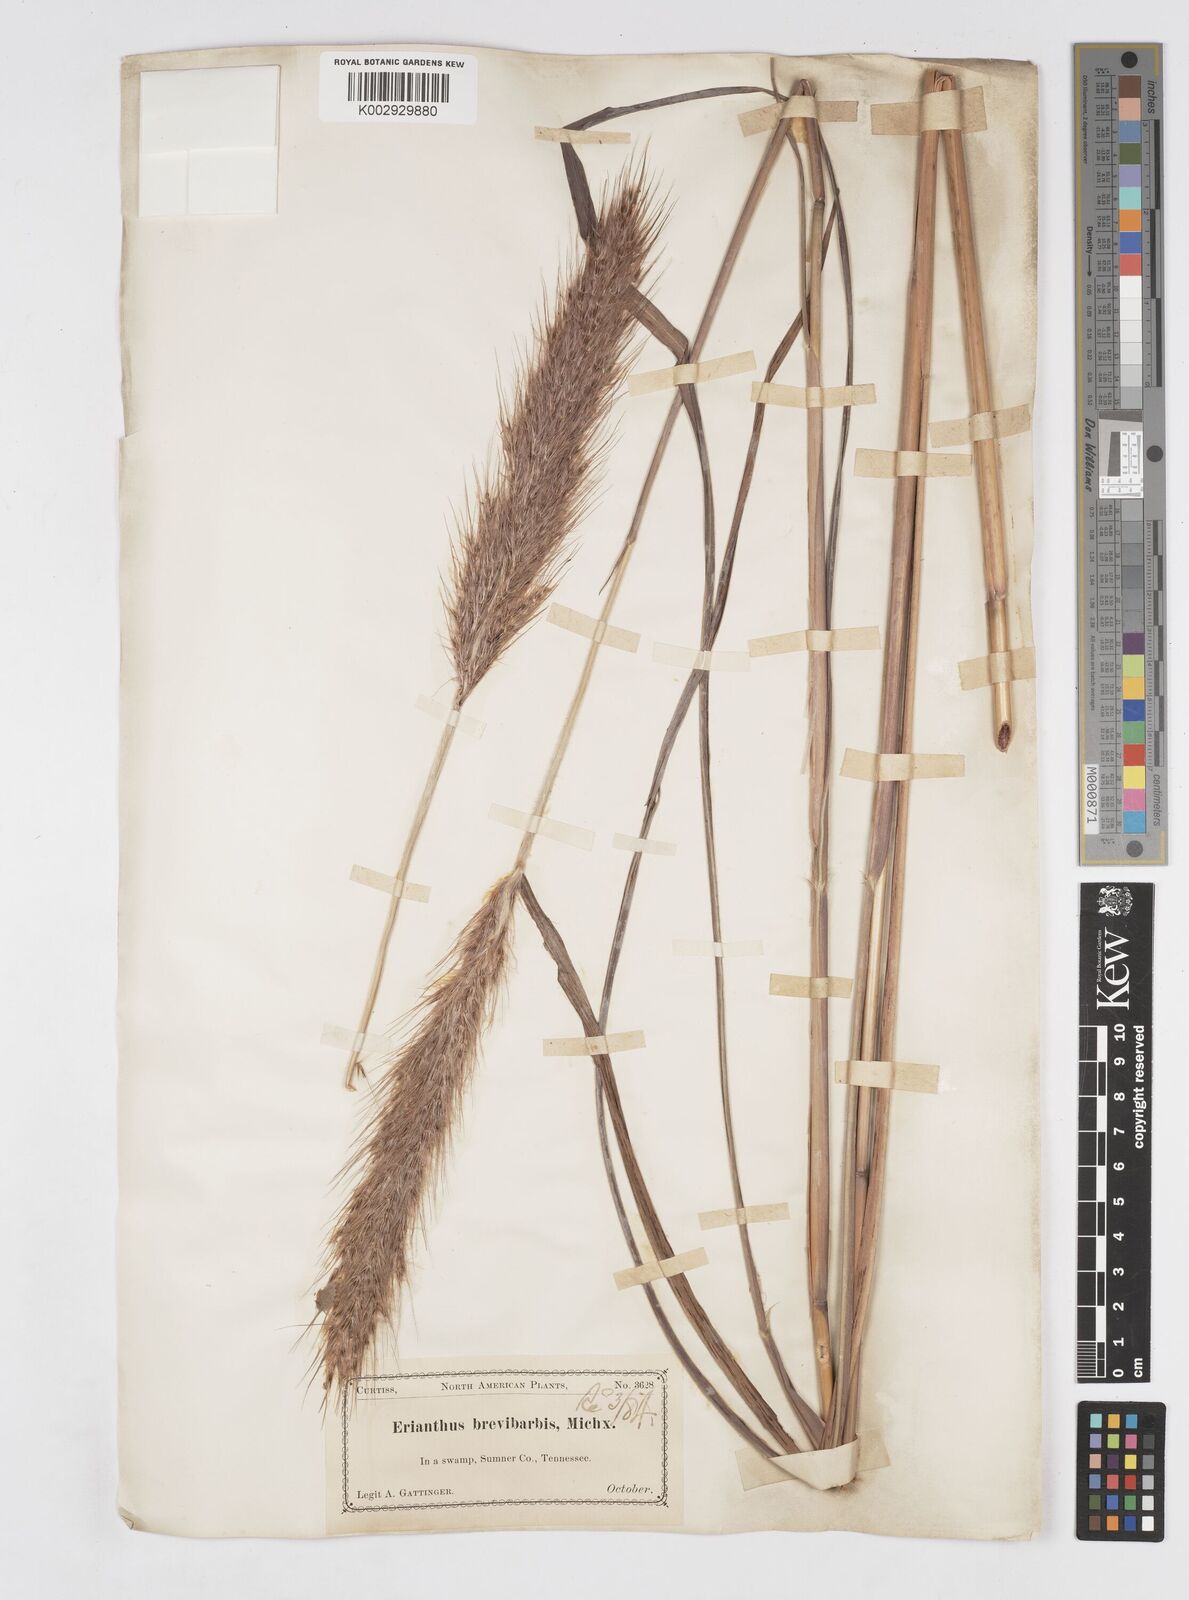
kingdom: Plantae
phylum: Tracheophyta
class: Liliopsida
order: Poales
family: Poaceae
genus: Saccharum
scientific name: Saccharum
